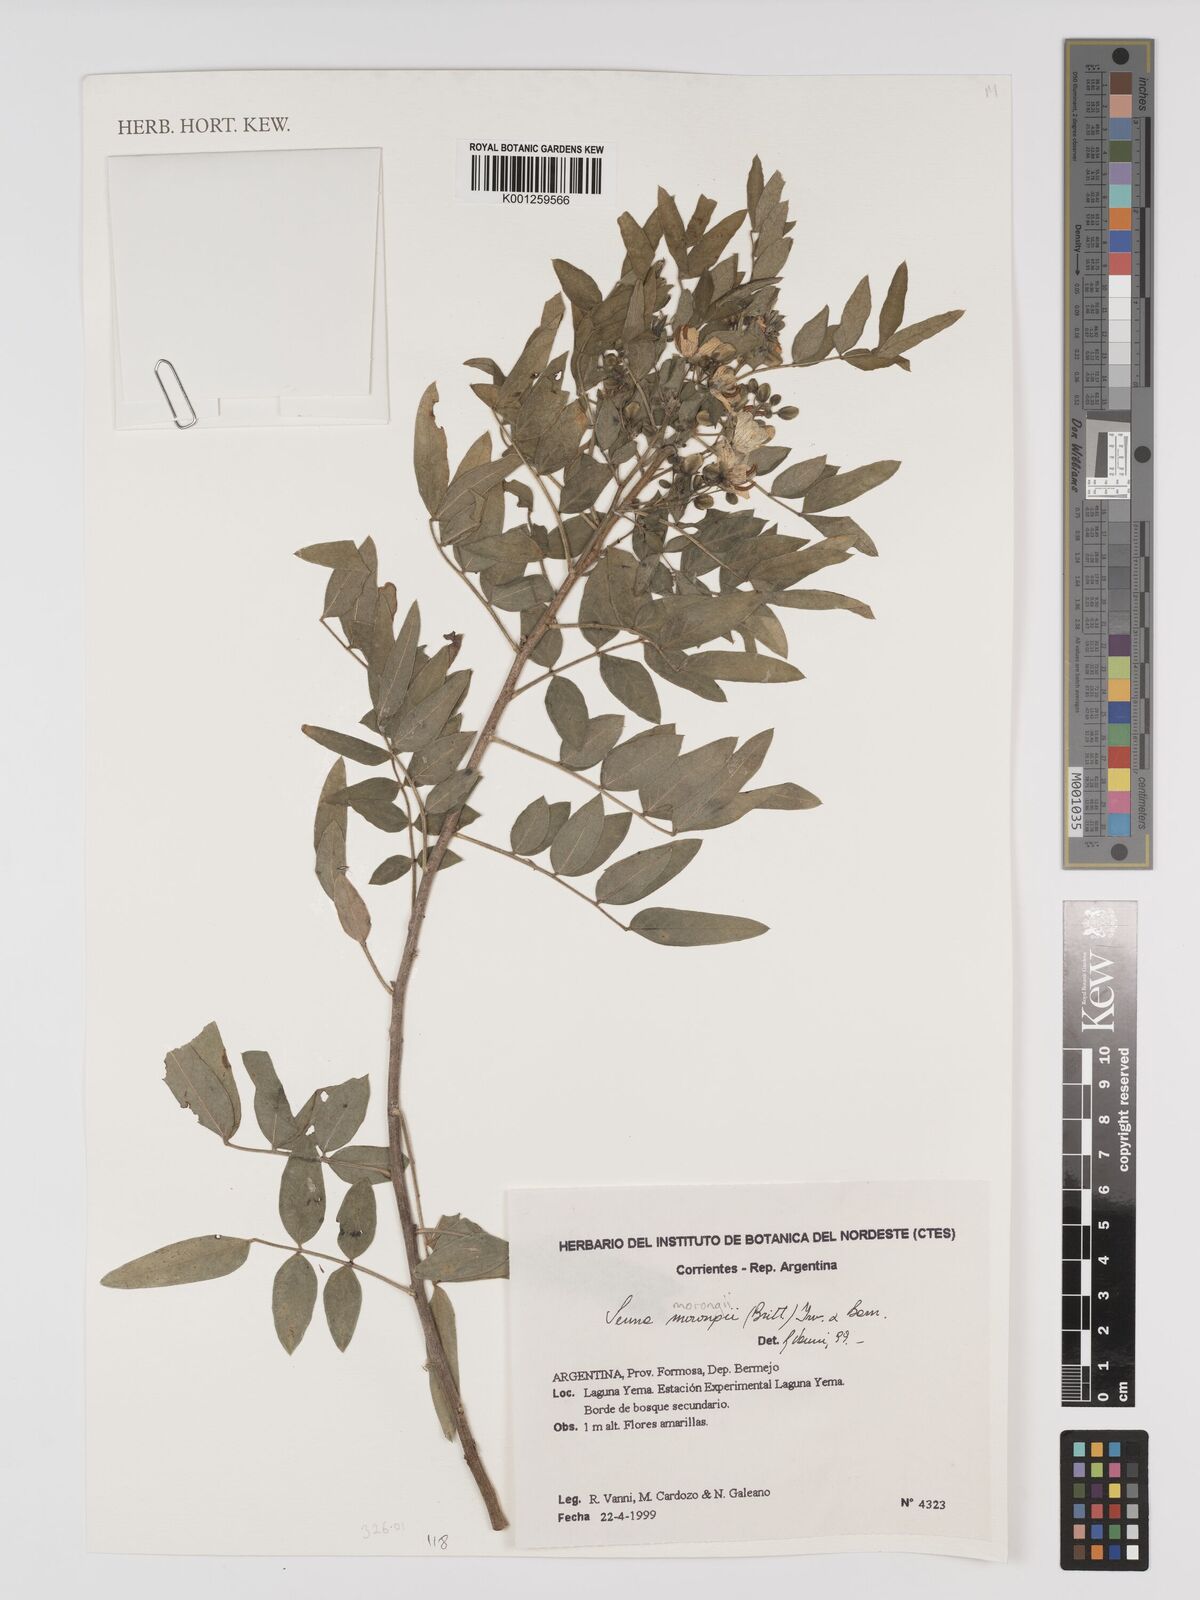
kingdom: Plantae
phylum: Tracheophyta
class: Magnoliopsida
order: Fabales
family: Fabaceae
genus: Senna
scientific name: Senna morongii
